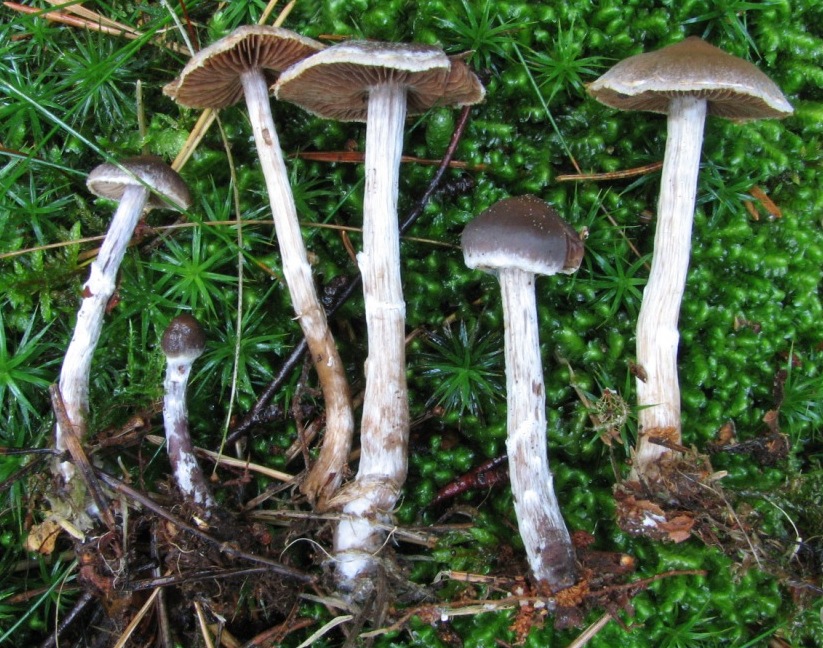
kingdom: Fungi
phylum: Basidiomycota
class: Agaricomycetes
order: Agaricales
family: Cortinariaceae
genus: Cortinarius
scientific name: Cortinarius decipiens
